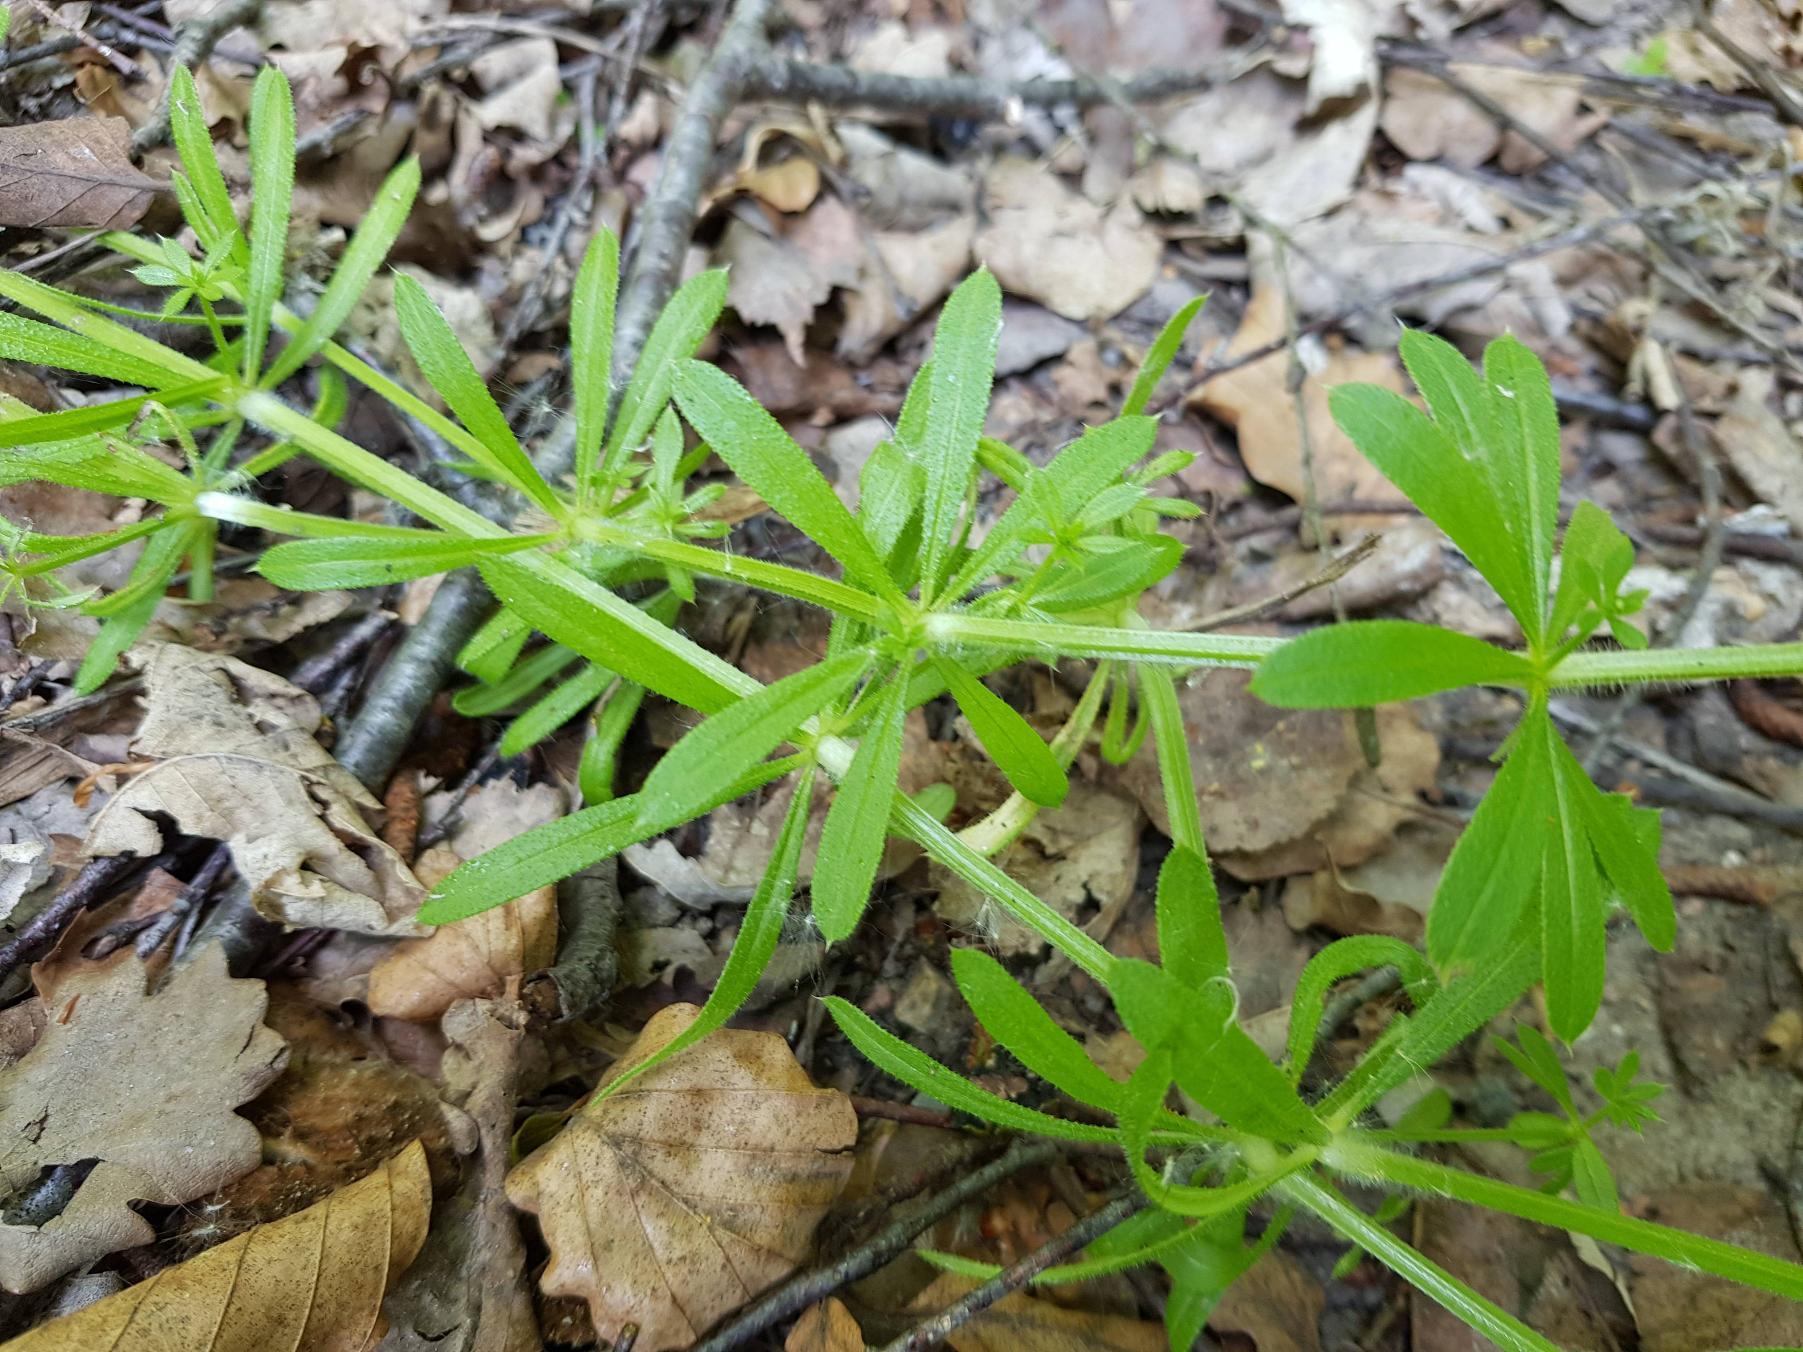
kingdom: Plantae
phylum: Tracheophyta
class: Magnoliopsida
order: Gentianales
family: Rubiaceae
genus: Galium
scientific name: Galium aparine
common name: Burre-snerre
